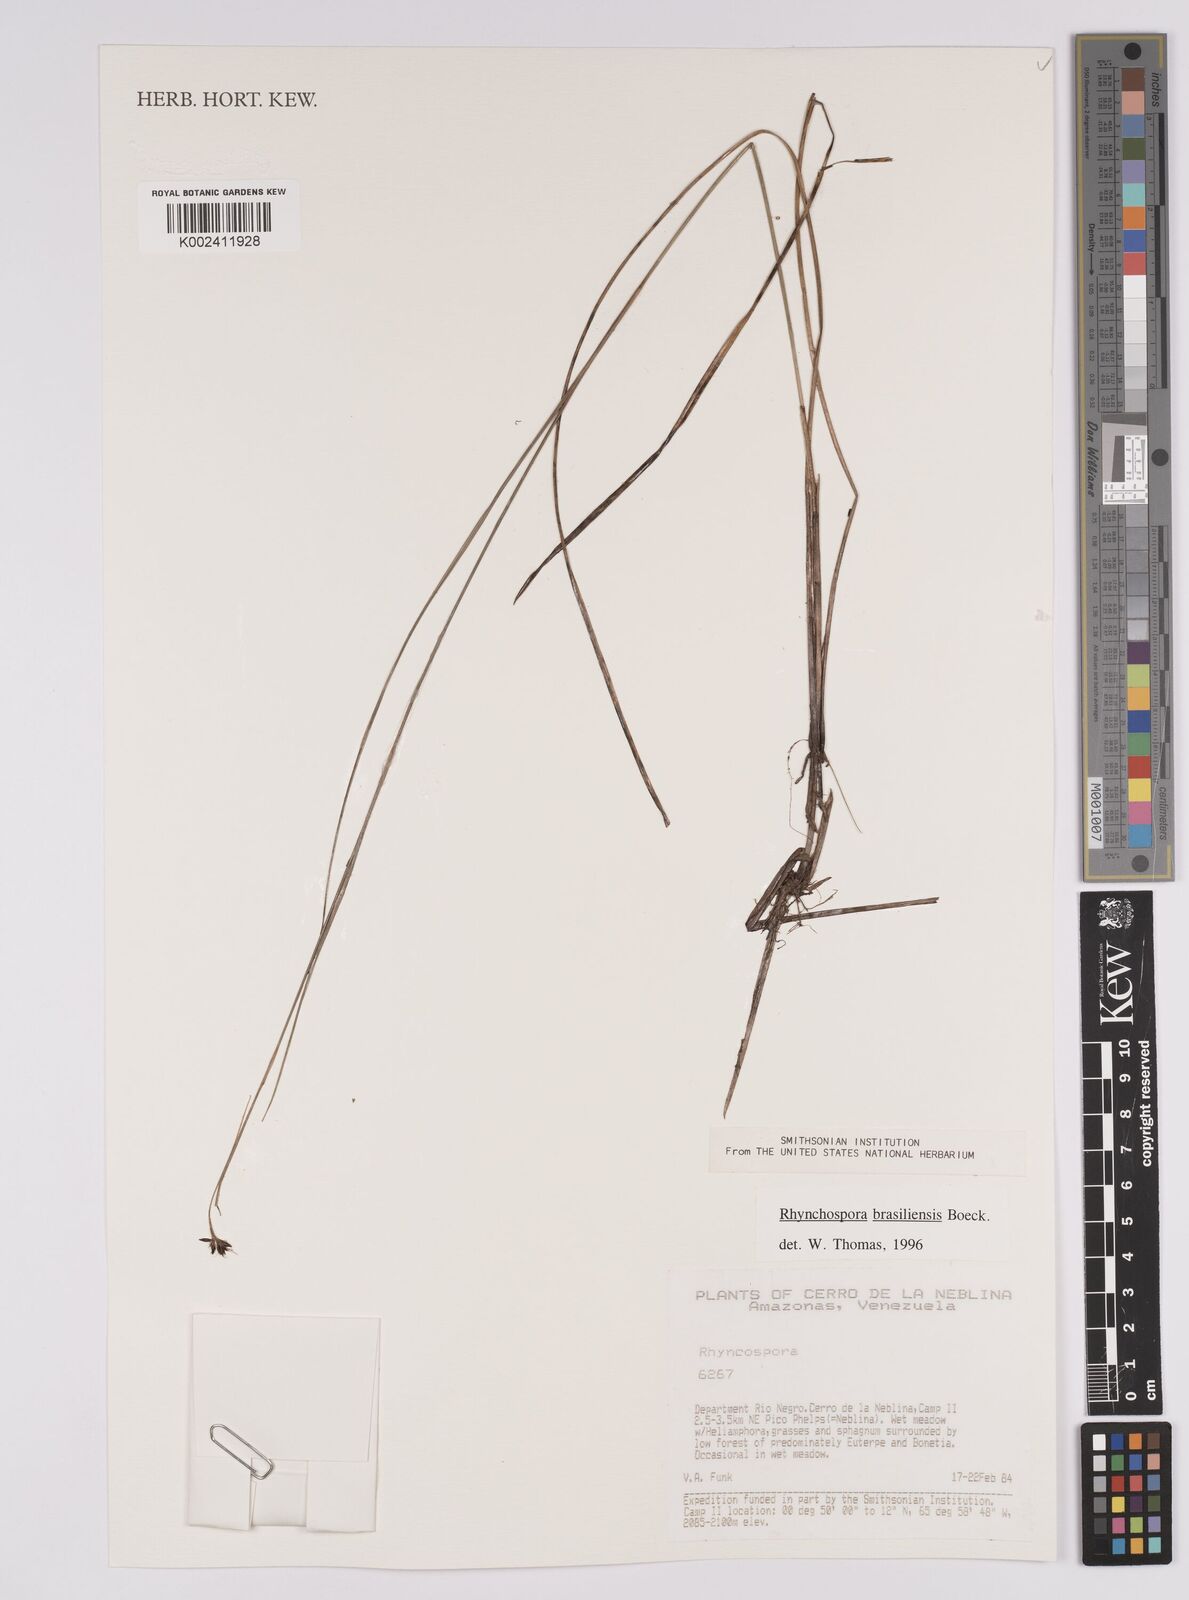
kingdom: Plantae
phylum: Tracheophyta
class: Liliopsida
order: Poales
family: Cyperaceae
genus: Rhynchospora
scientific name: Rhynchospora brasiliensis
